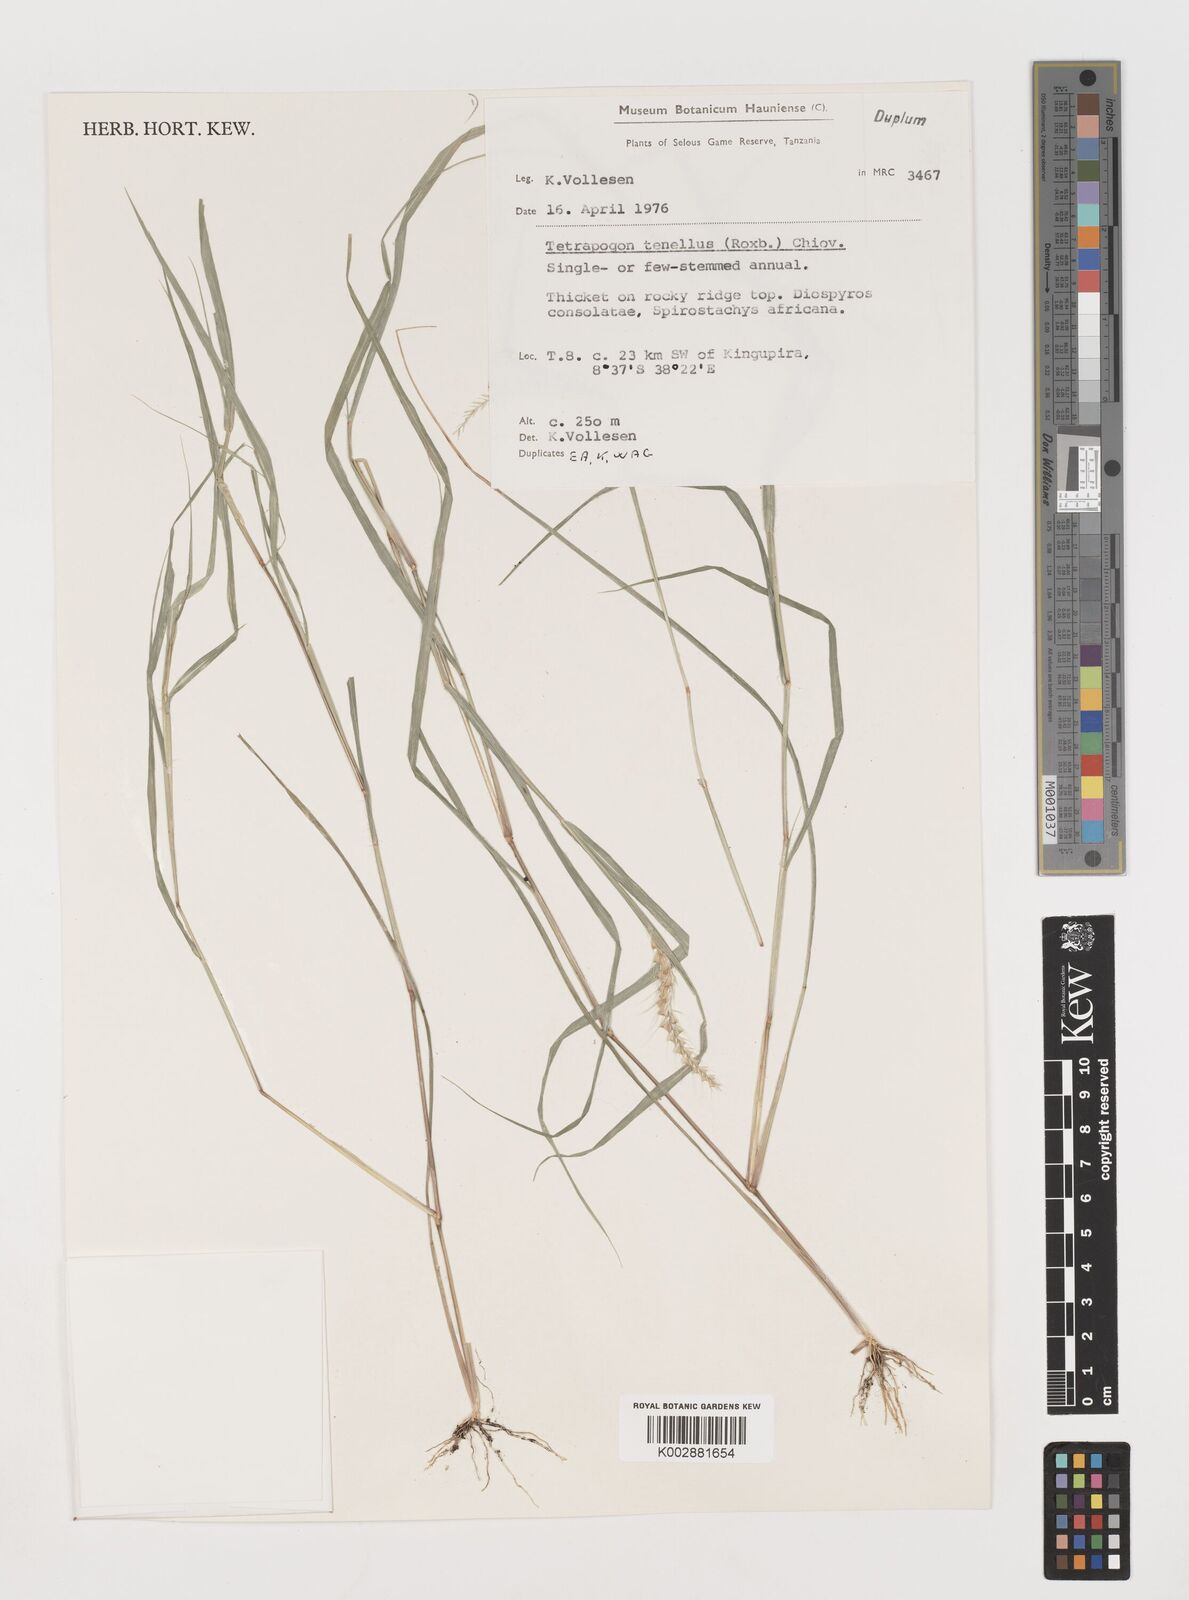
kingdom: Plantae
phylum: Tracheophyta
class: Liliopsida
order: Poales
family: Poaceae
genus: Tetrapogon
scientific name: Tetrapogon tenellus
